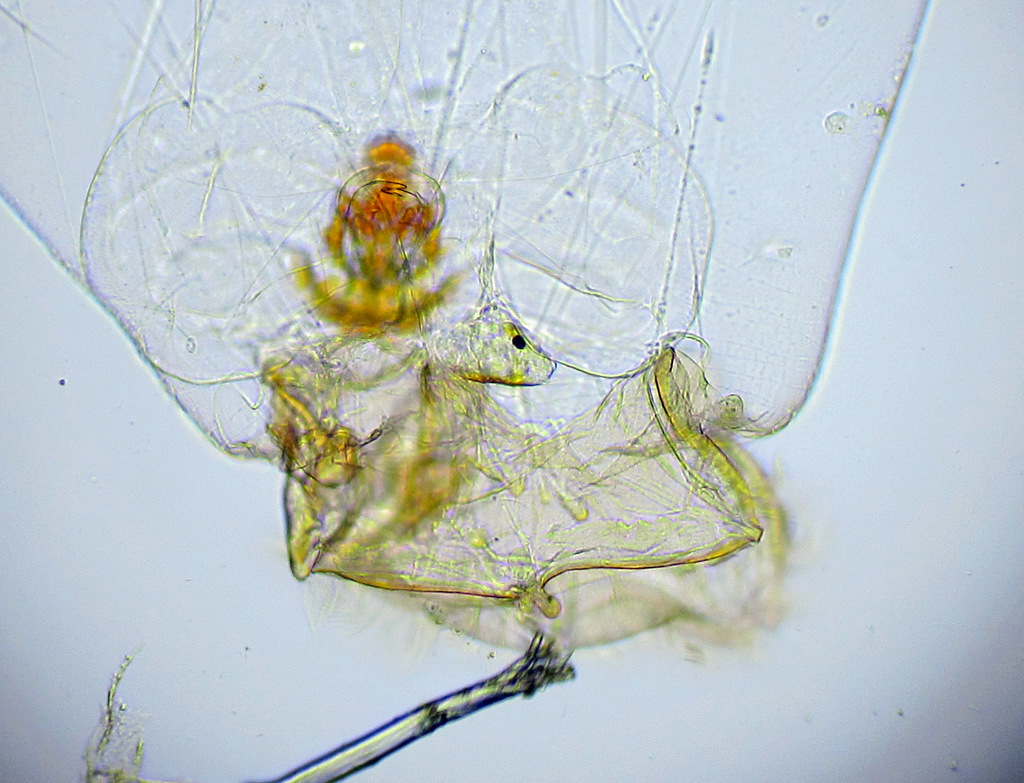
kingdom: Animalia
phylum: Rotifera
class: Eurotatoria
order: Ploima
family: Asplanchnidae
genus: Asplanchna
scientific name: Asplanchna priodonta
